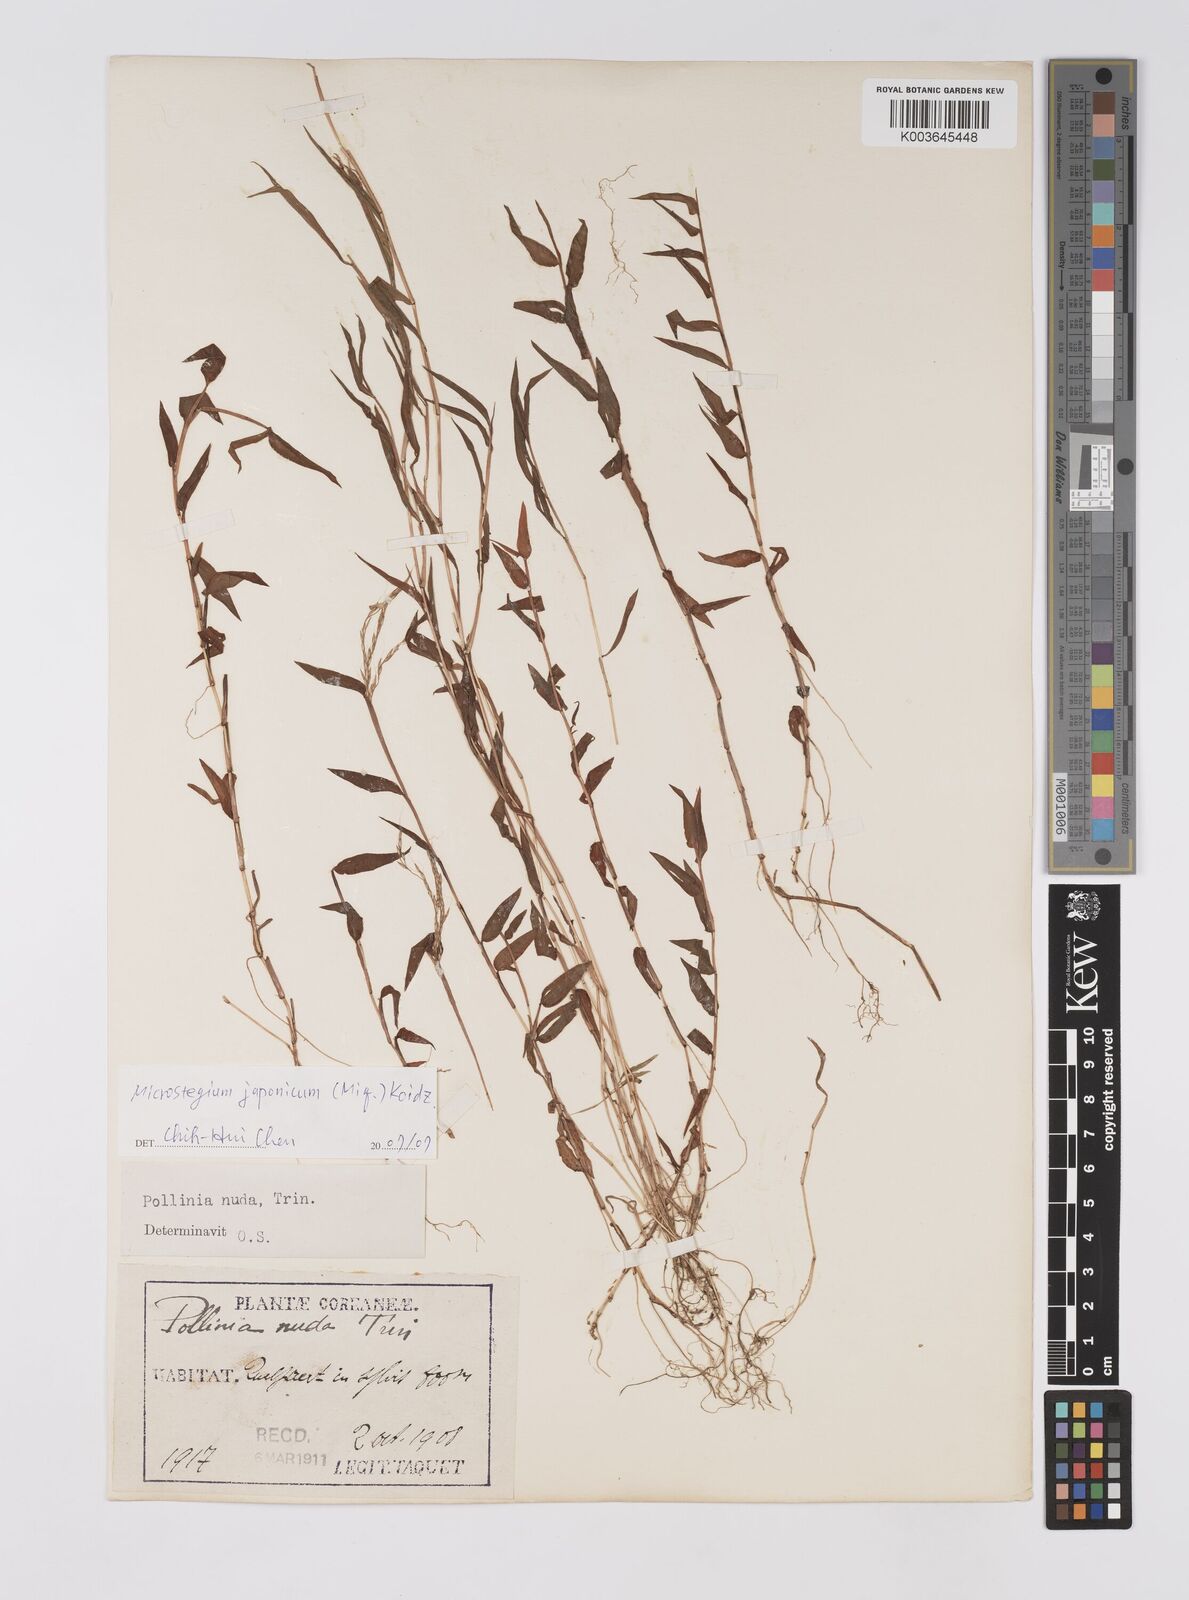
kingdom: Plantae
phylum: Tracheophyta
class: Liliopsida
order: Poales
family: Poaceae
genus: Microstegium
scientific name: Microstegium japonicum
